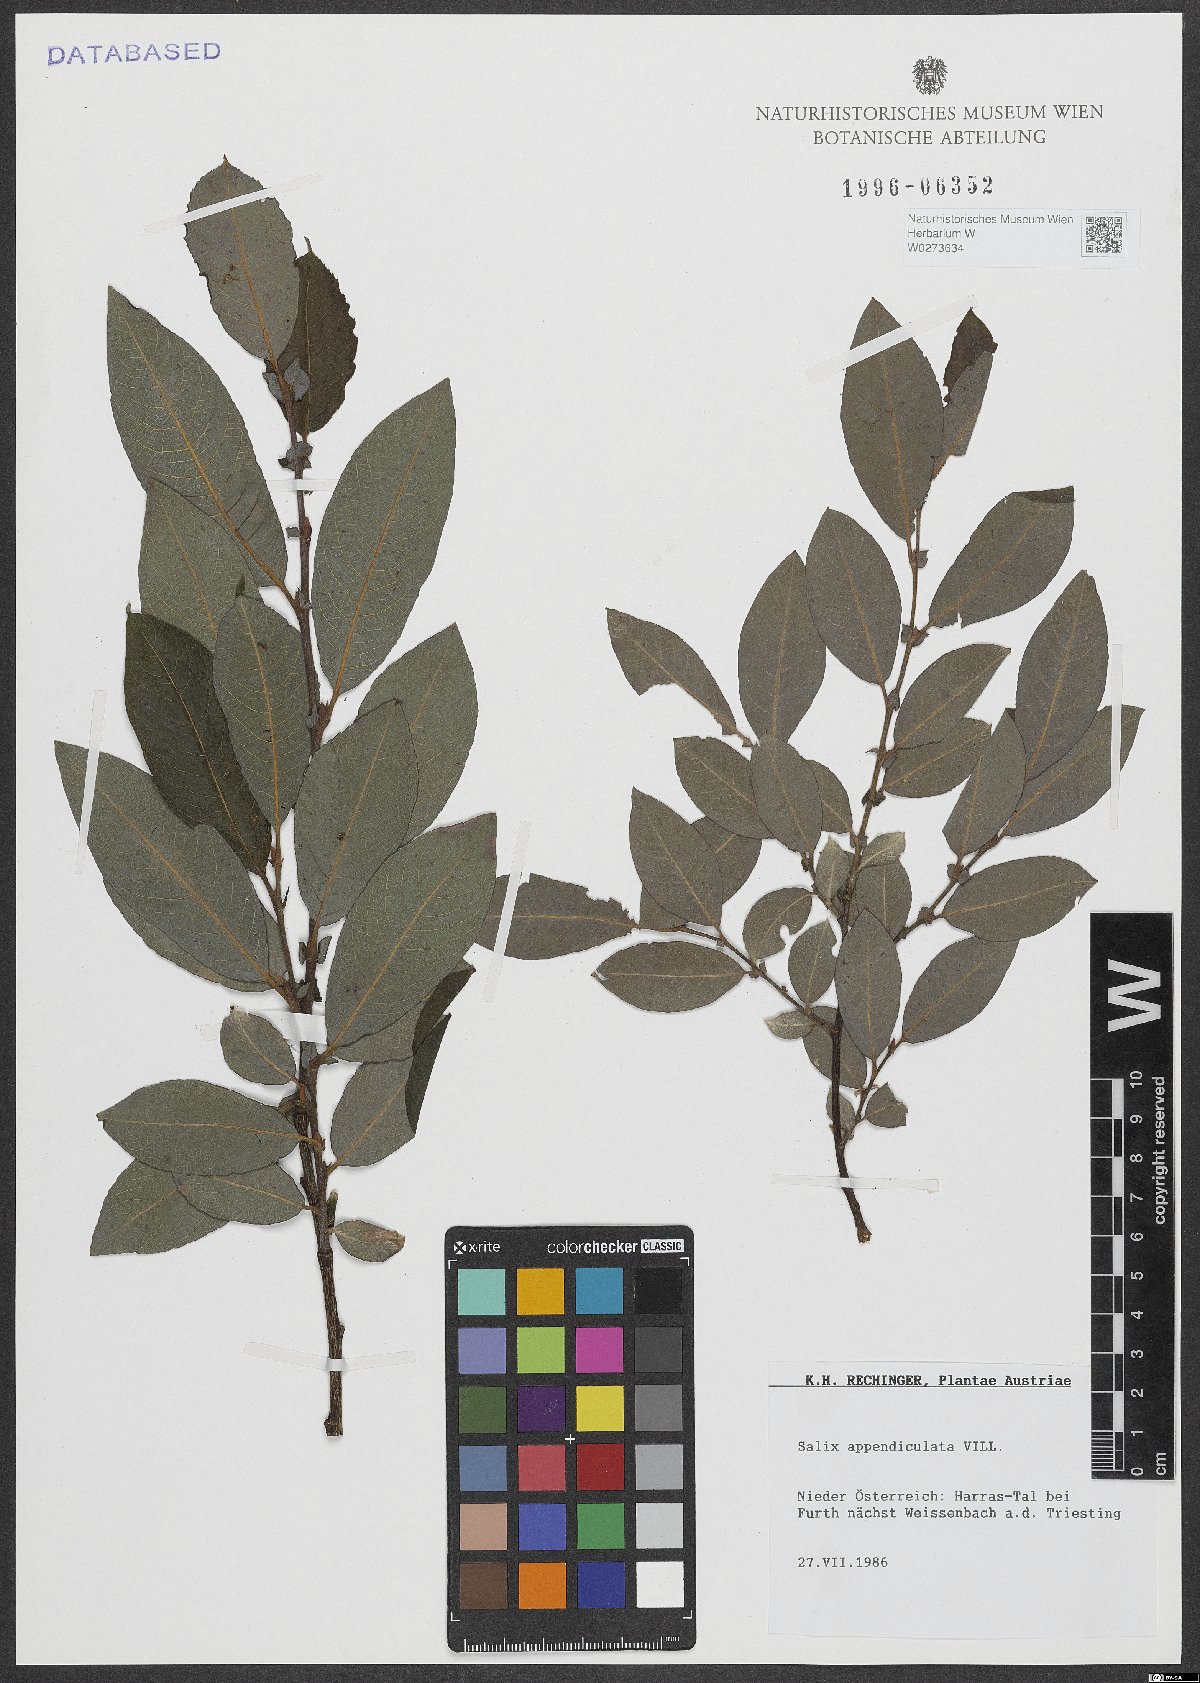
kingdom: Plantae
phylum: Tracheophyta
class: Magnoliopsida
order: Malpighiales
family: Salicaceae
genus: Salix
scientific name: Salix appendiculata
